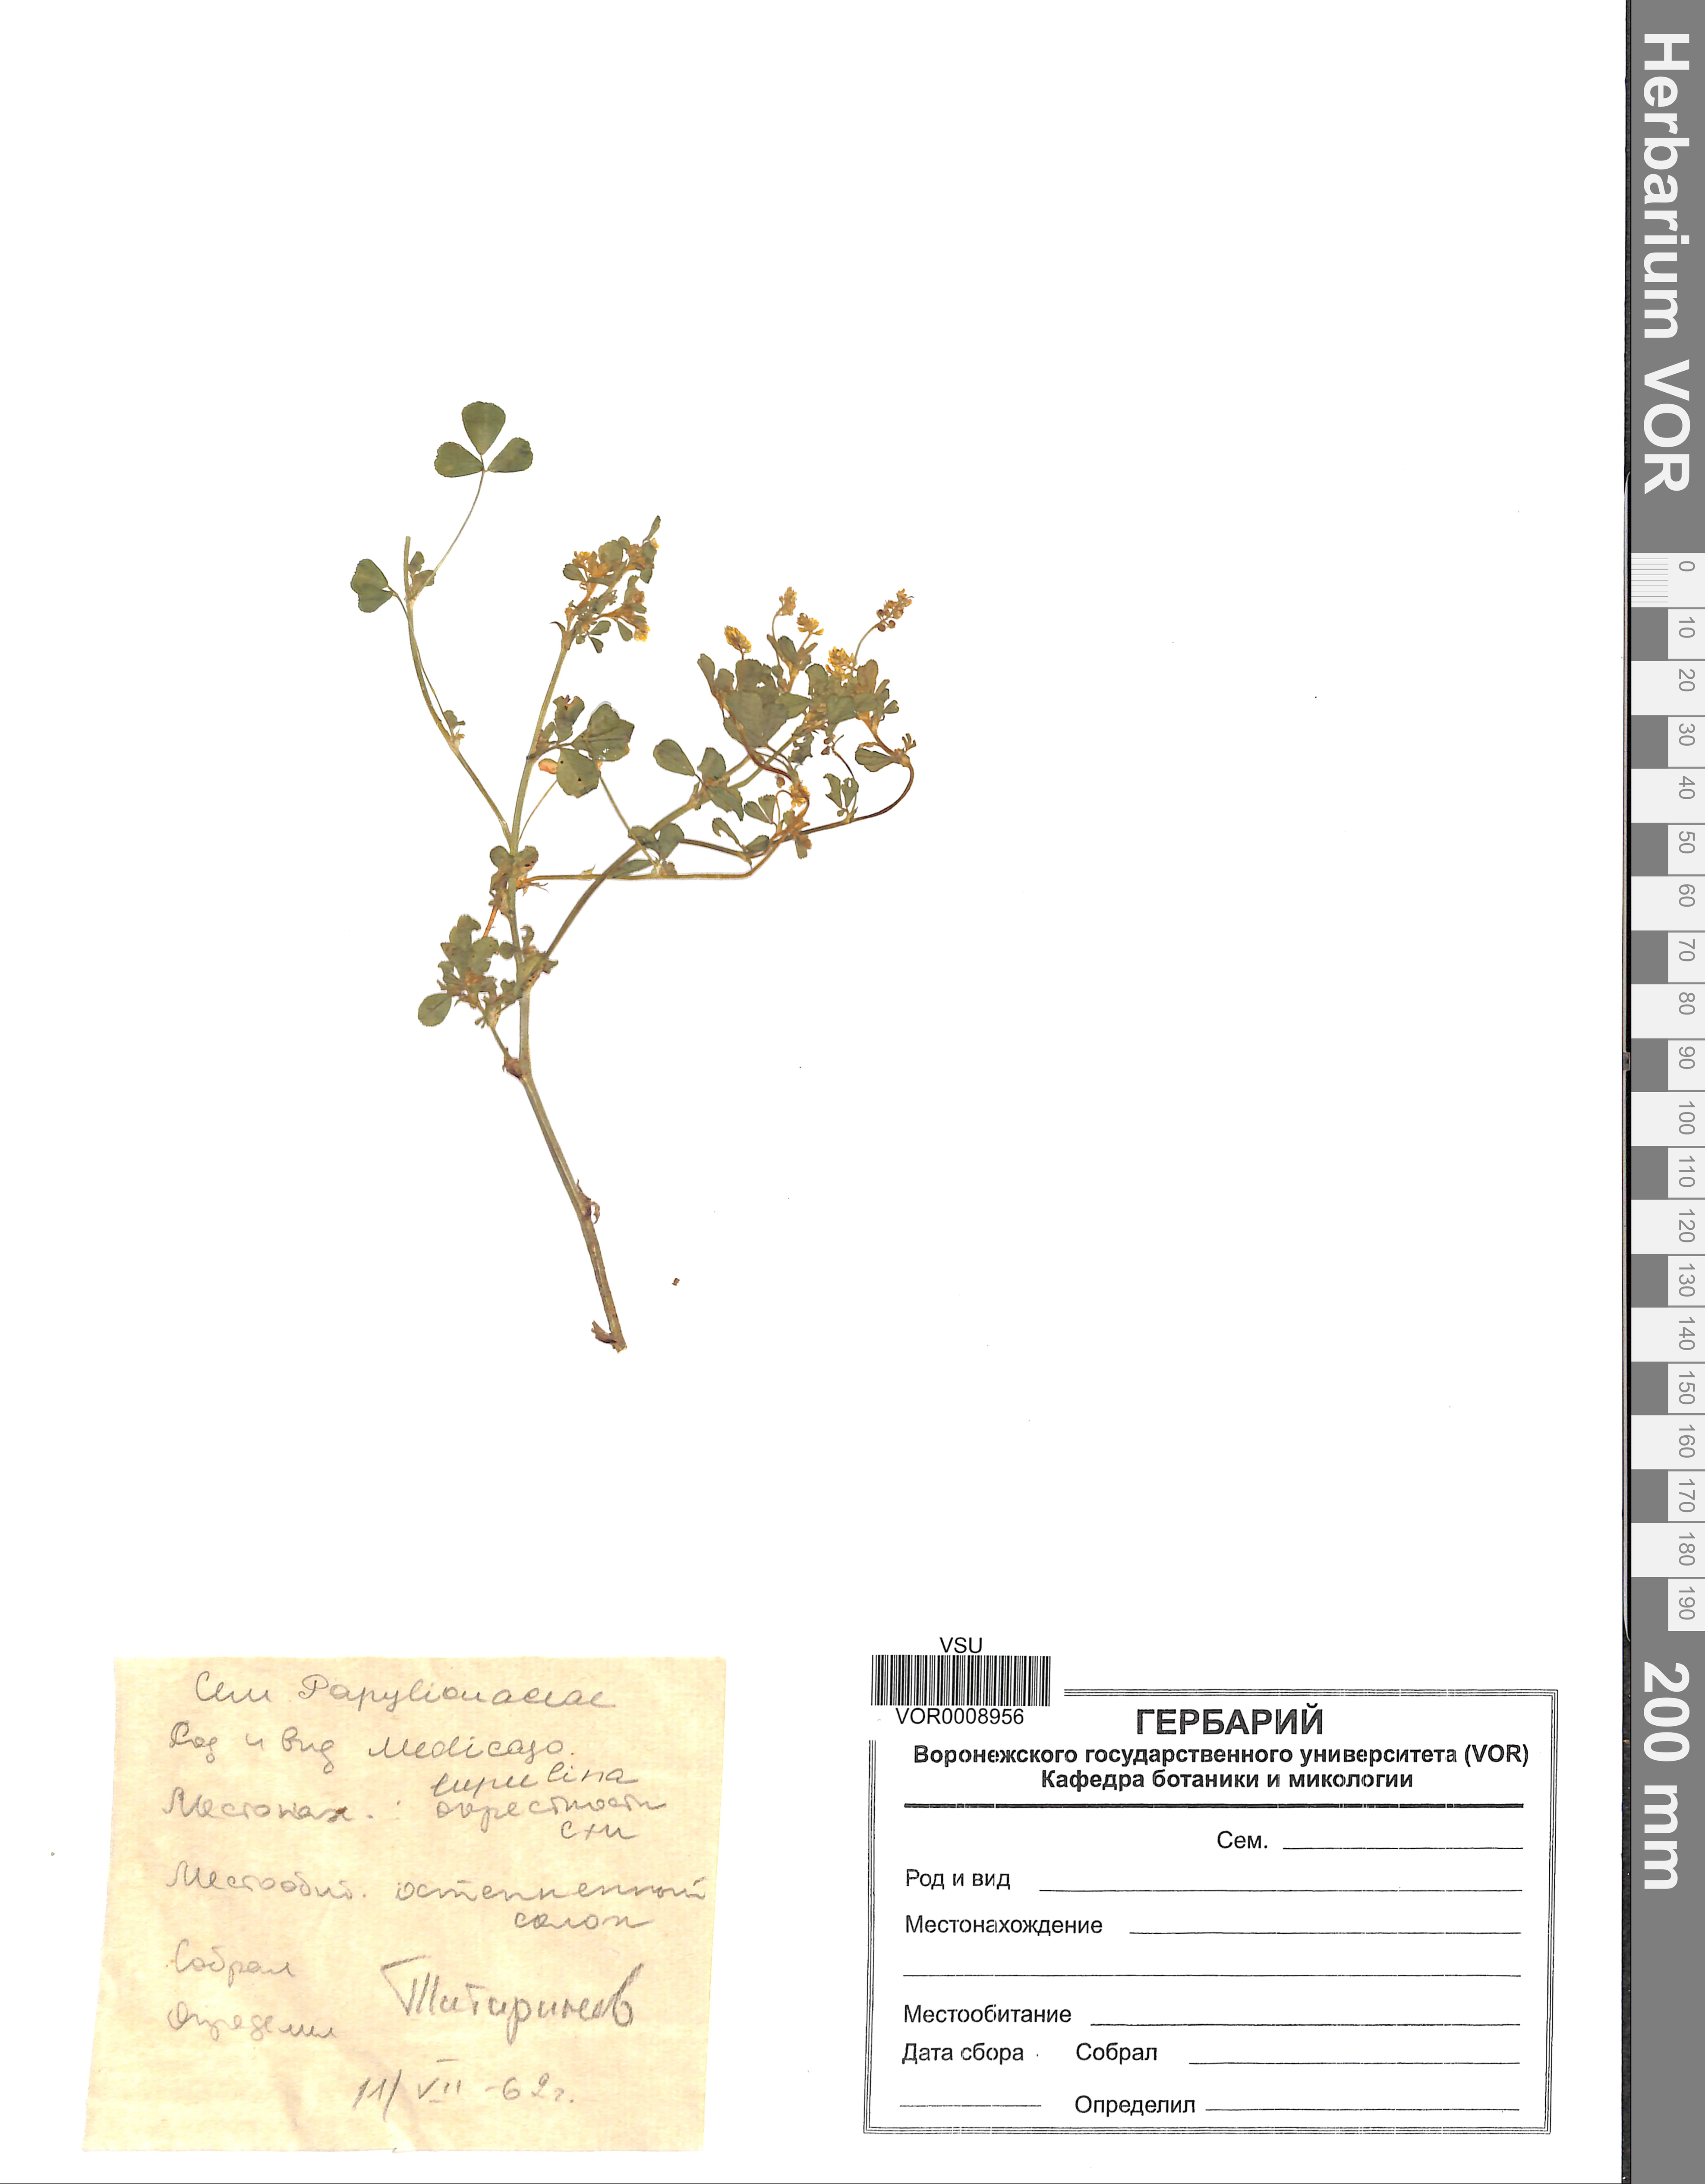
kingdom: Plantae
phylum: Tracheophyta
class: Magnoliopsida
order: Fabales
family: Fabaceae
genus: Medicago
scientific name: Medicago lupulina
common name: Black medick
